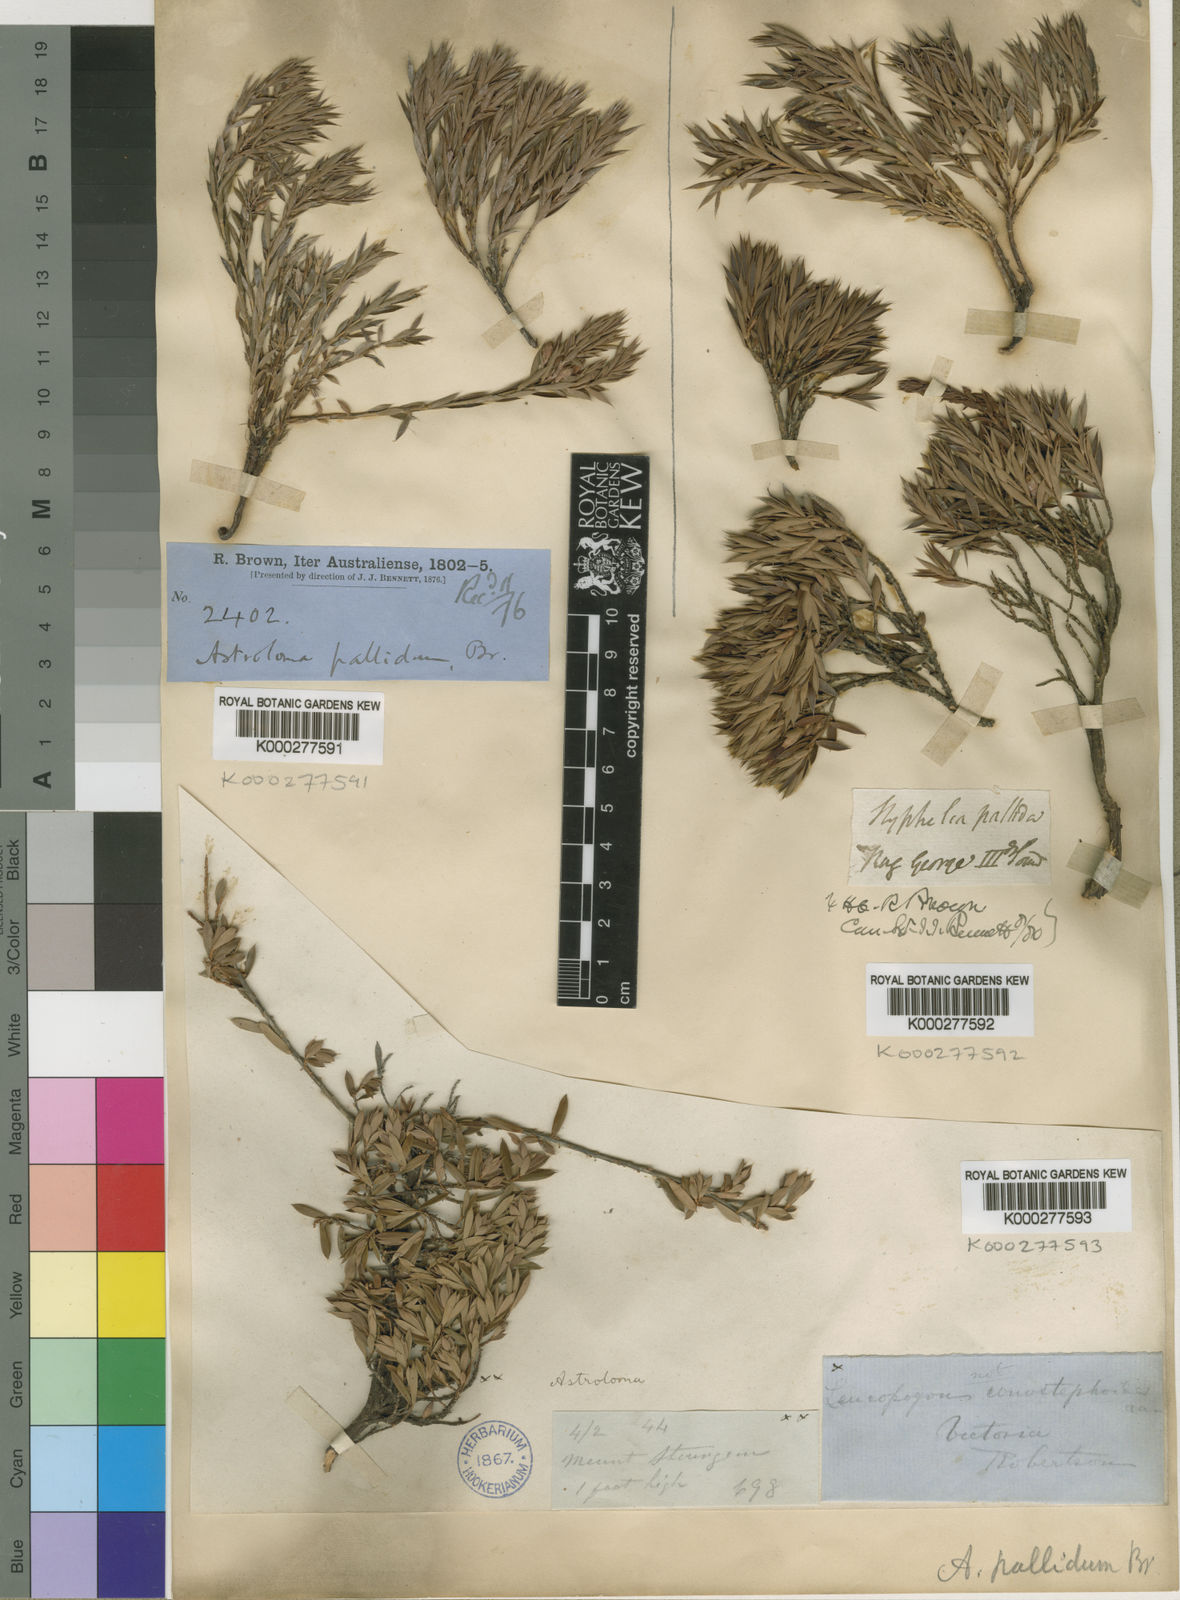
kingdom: Plantae
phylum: Tracheophyta
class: Magnoliopsida
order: Ericales
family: Ericaceae
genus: Styphelia
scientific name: Styphelia pallida
